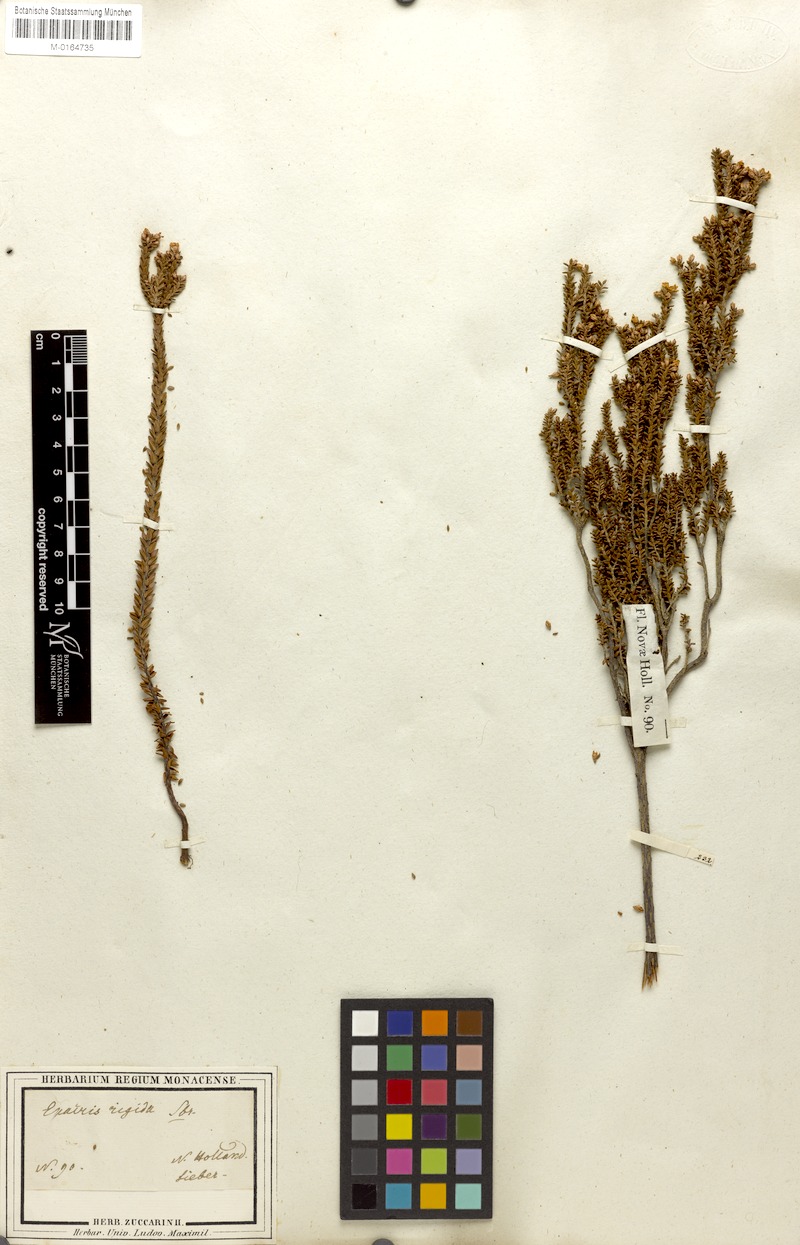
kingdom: Plantae
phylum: Tracheophyta
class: Magnoliopsida
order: Ericales
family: Ericaceae
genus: Epacris
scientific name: Epacris rigida
